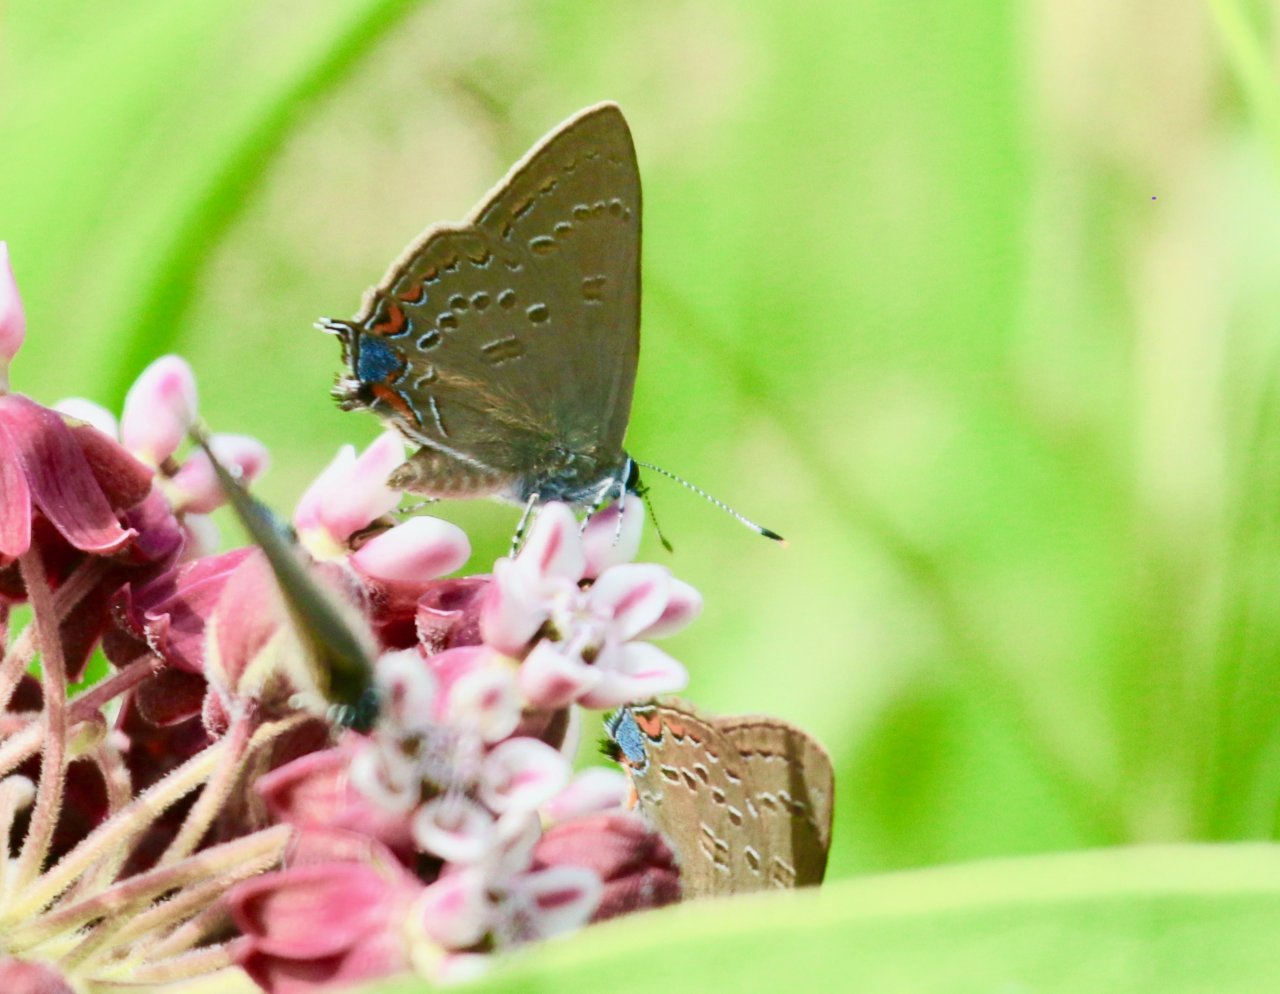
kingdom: Animalia
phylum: Arthropoda
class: Insecta
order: Lepidoptera
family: Lycaenidae
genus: Satyrium
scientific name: Satyrium edwardsii
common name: Edwards' Hairstreak
